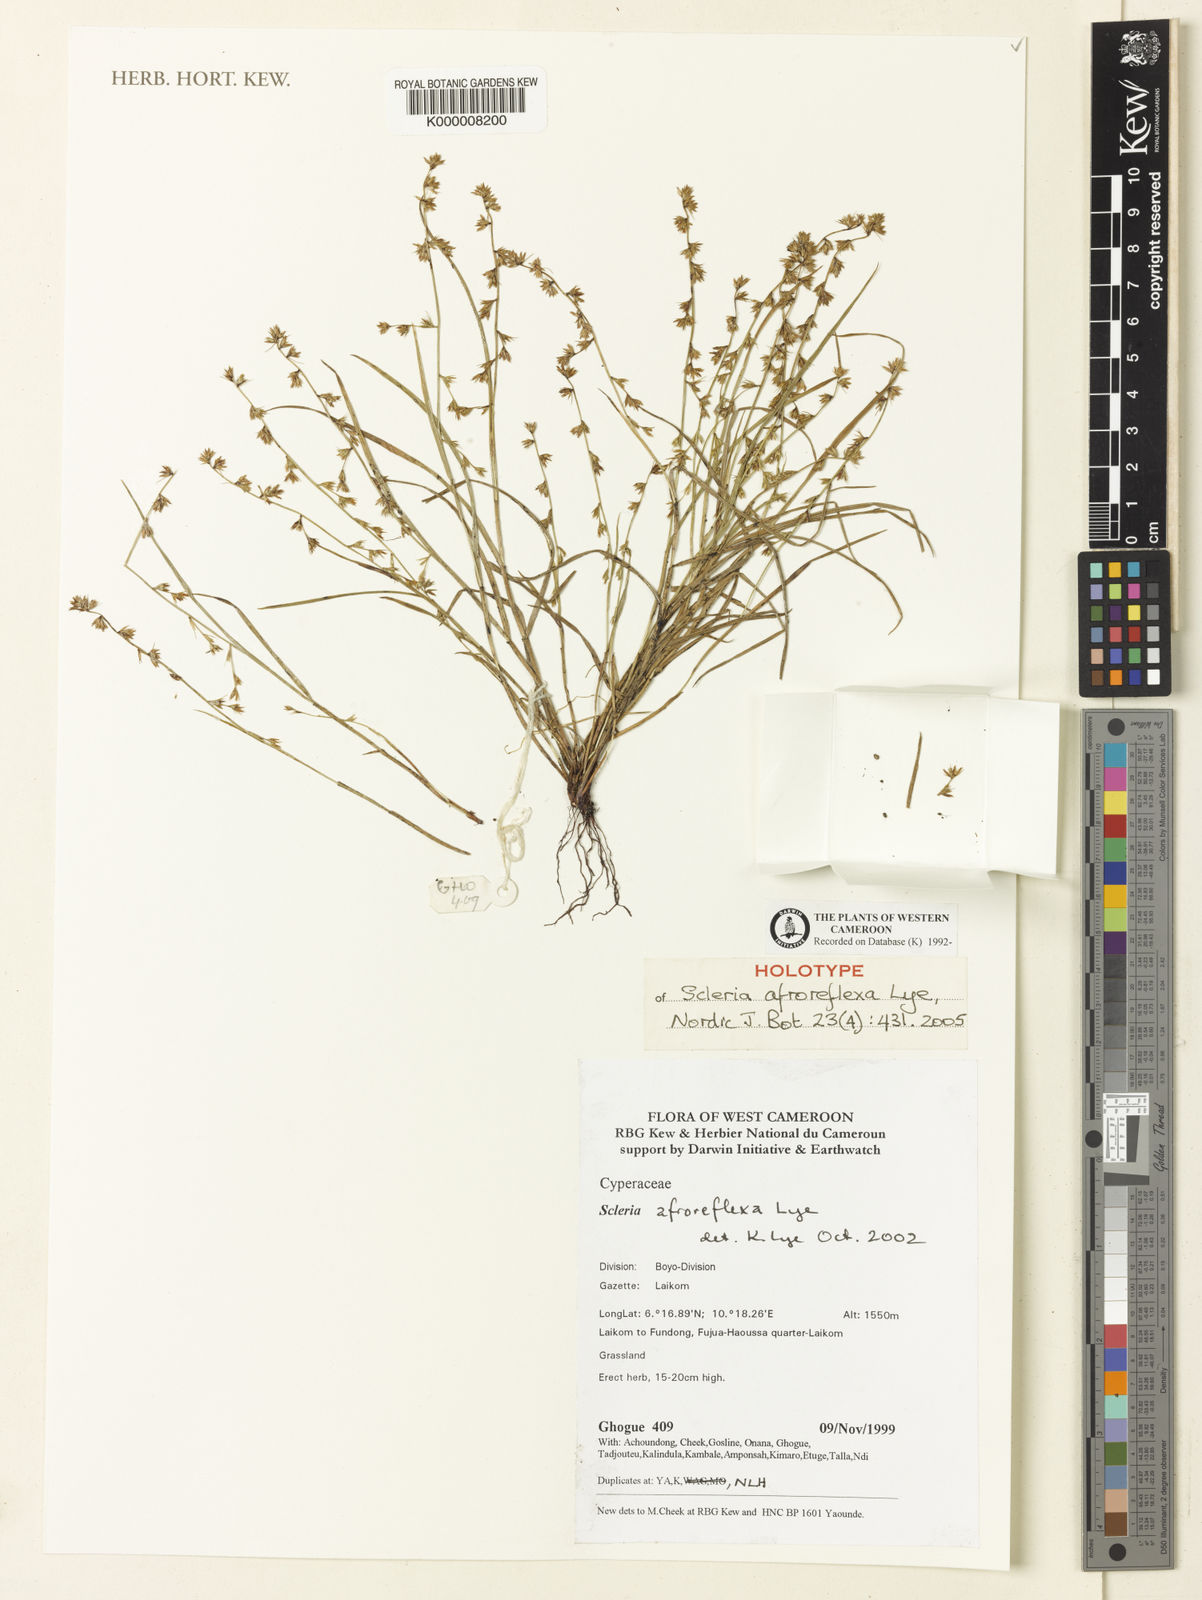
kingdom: Plantae
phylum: Tracheophyta
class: Liliopsida
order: Poales
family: Cyperaceae
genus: Scleria
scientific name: Scleria afroreflexa
